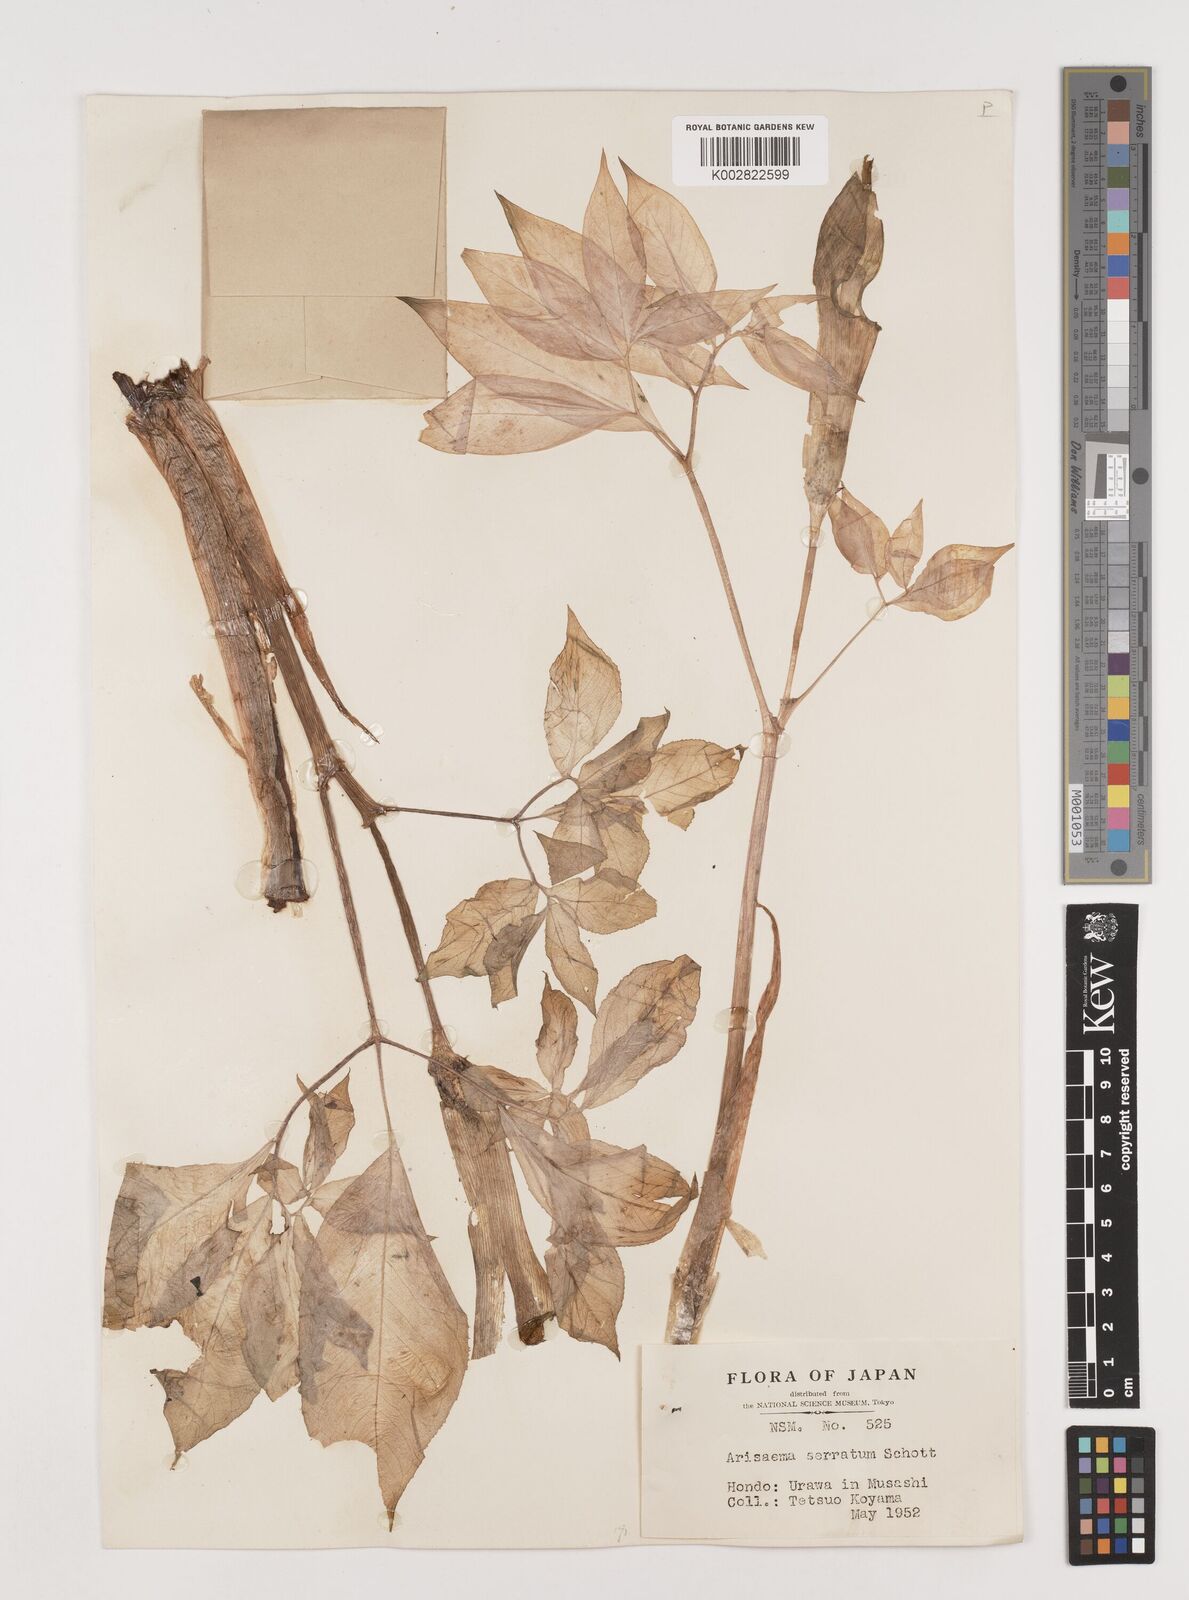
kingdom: Plantae
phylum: Tracheophyta
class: Liliopsida
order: Alismatales
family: Araceae
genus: Arisaema
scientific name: Arisaema serratum
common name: Japanese arisaema
